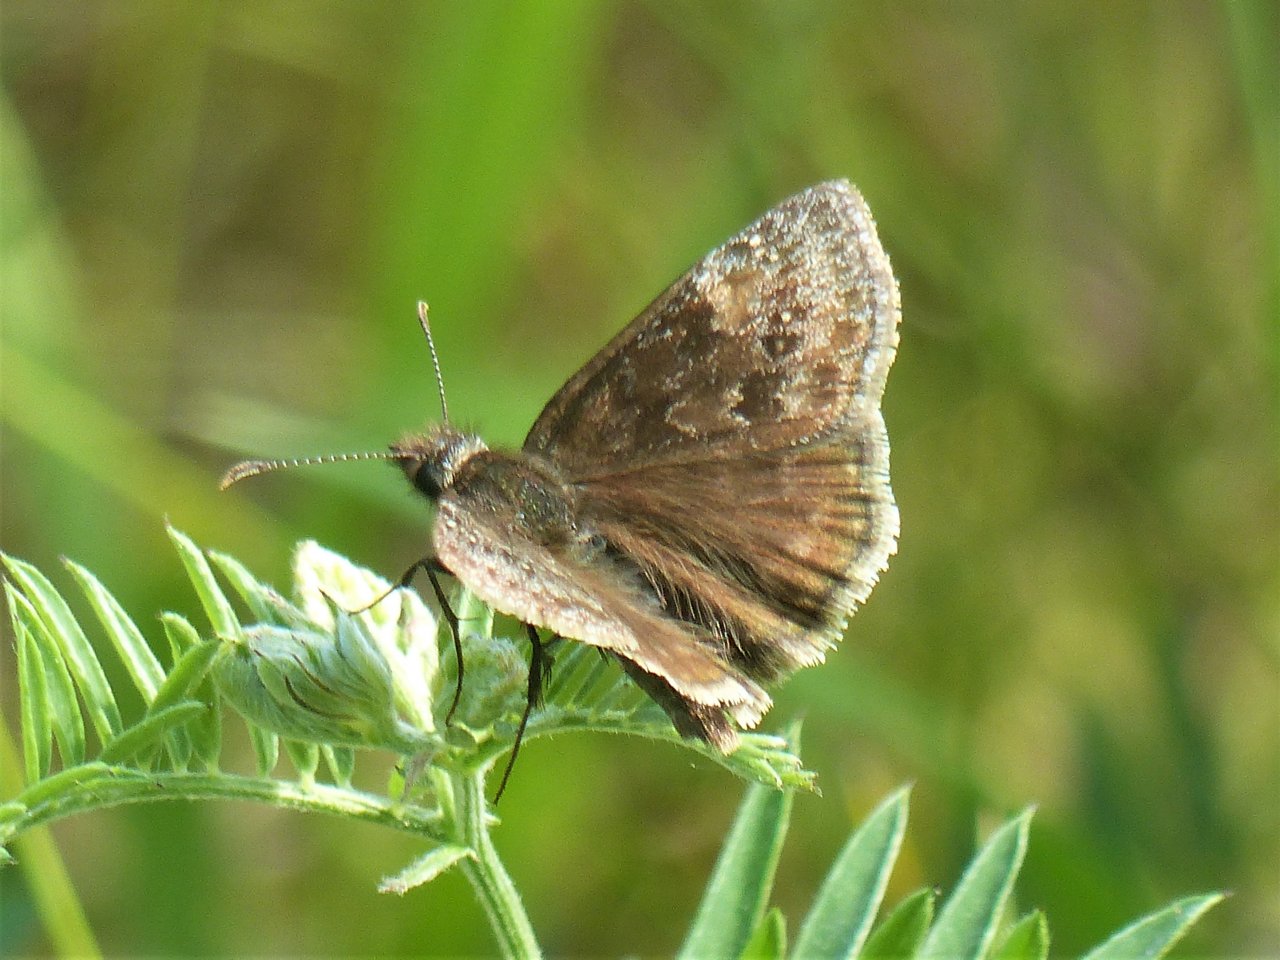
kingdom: Animalia
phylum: Arthropoda
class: Insecta
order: Lepidoptera
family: Hesperiidae
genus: Gesta
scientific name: Gesta
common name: Wild Indigo Duskywing
